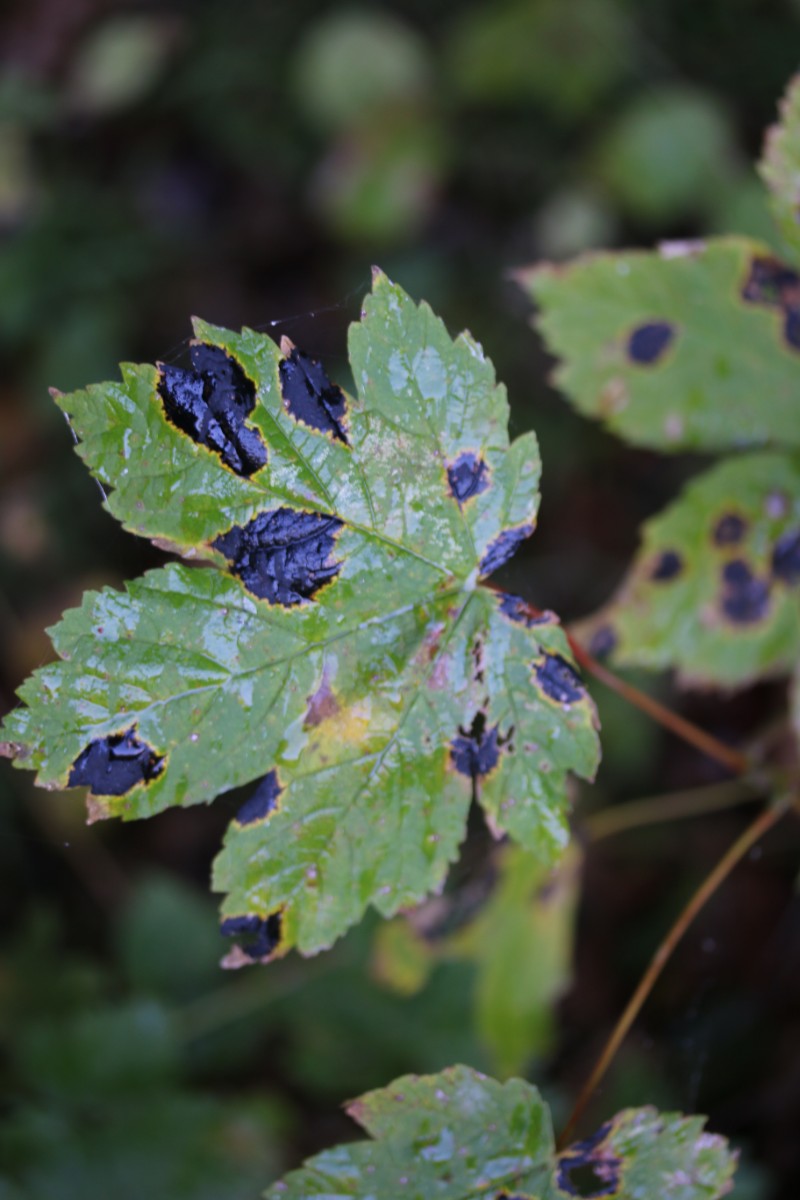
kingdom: Fungi
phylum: Ascomycota
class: Leotiomycetes
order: Rhytismatales
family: Rhytismataceae
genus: Rhytisma
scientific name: Rhytisma acerinum
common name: ahorn-rynkeplet
